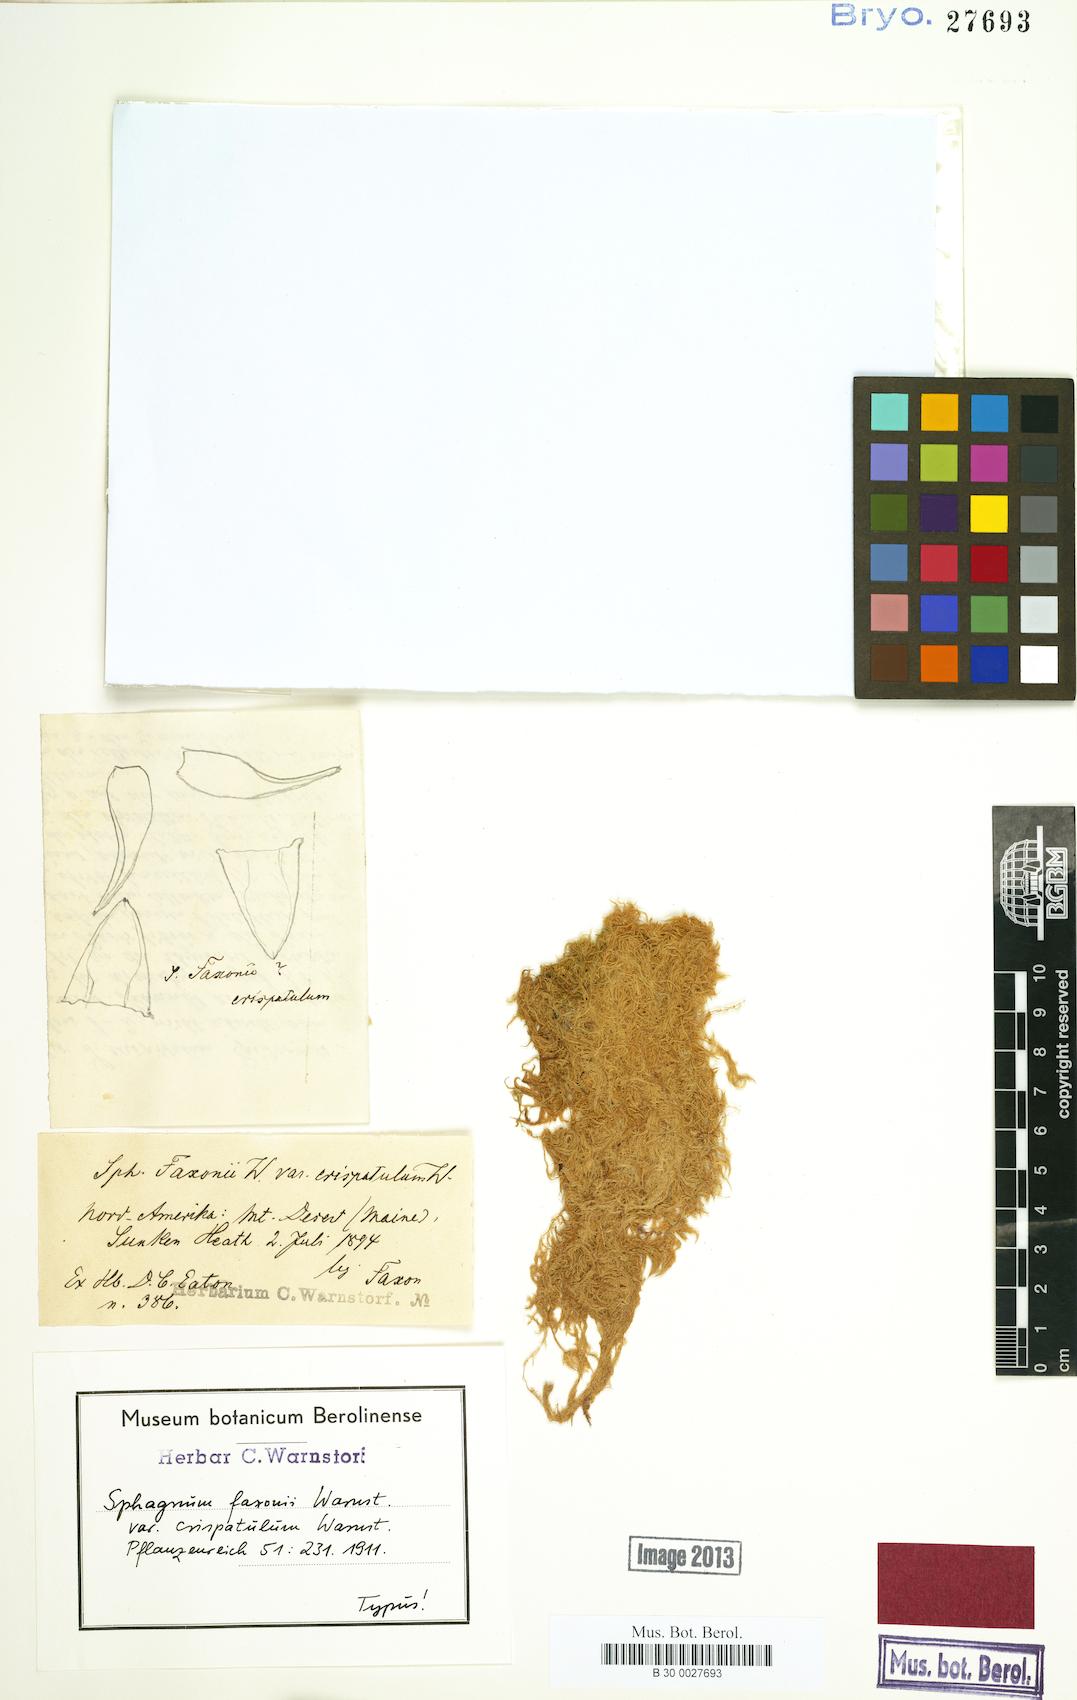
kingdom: Plantae
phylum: Bryophyta
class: Sphagnopsida
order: Sphagnales
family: Sphagnaceae
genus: Sphagnum
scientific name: Sphagnum cuspidatum
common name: Feathery peat moss
